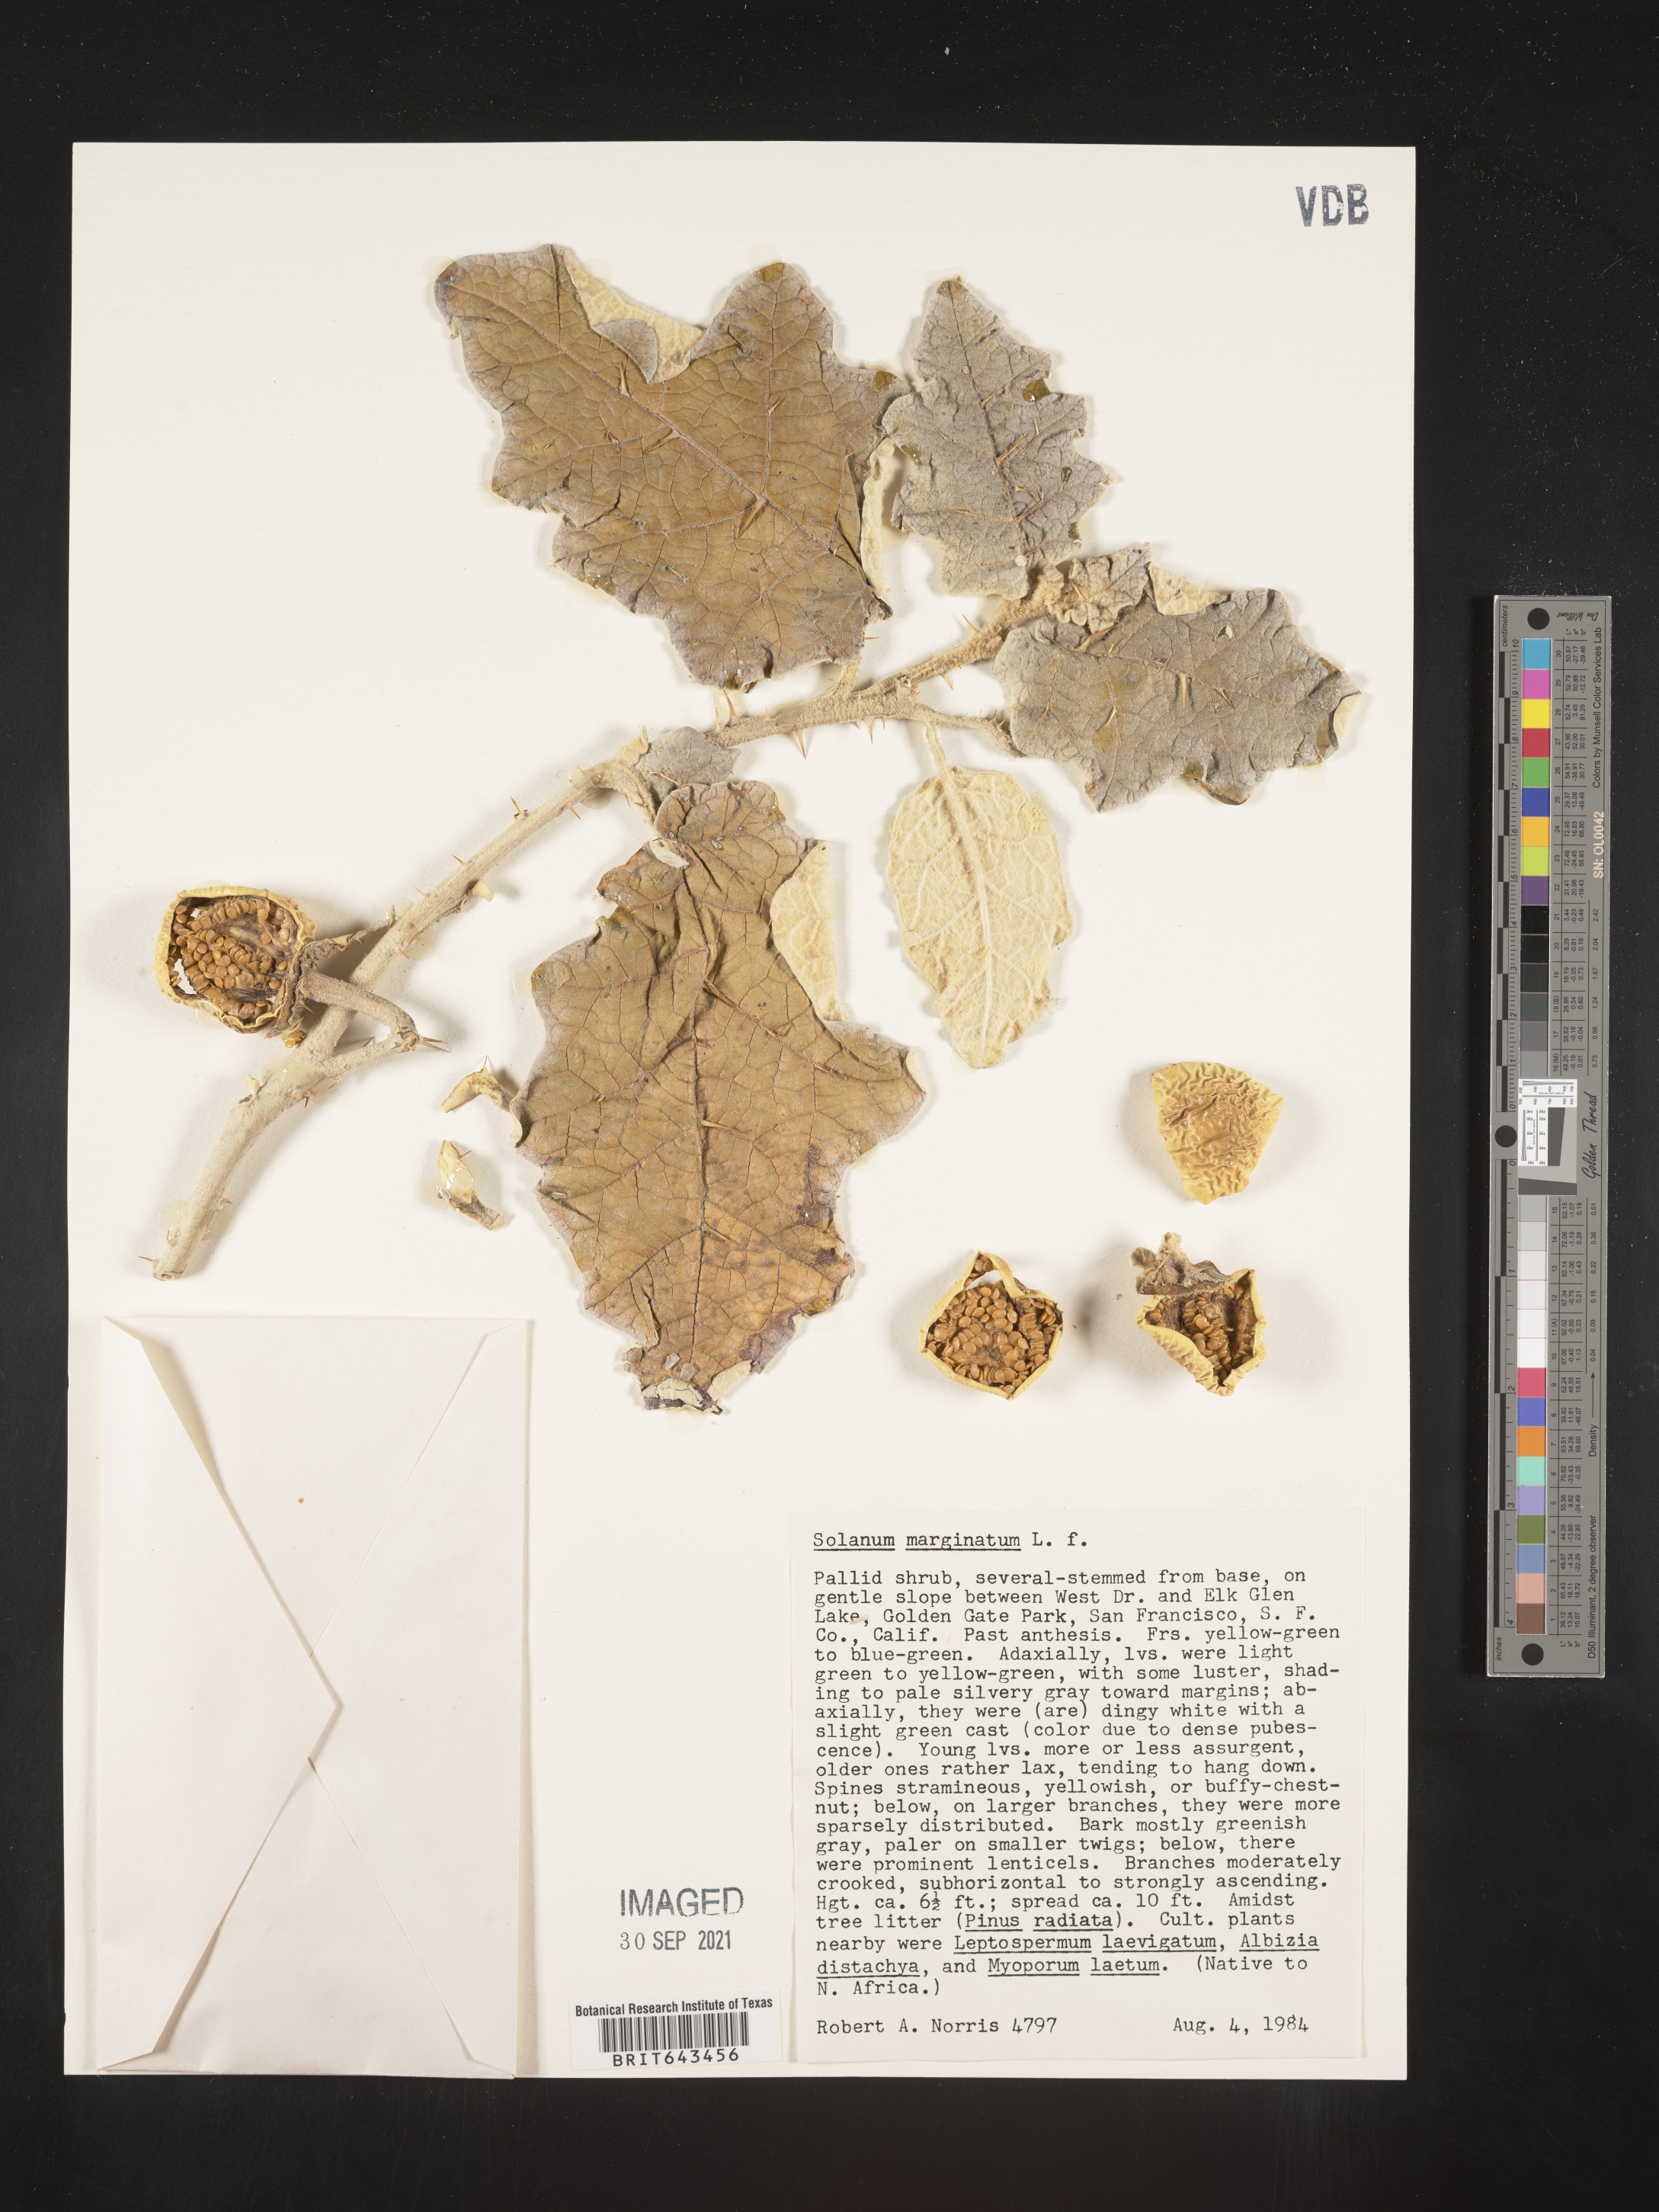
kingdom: Plantae
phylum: Tracheophyta
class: Magnoliopsida
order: Solanales
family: Solanaceae
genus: Solanum
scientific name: Solanum
